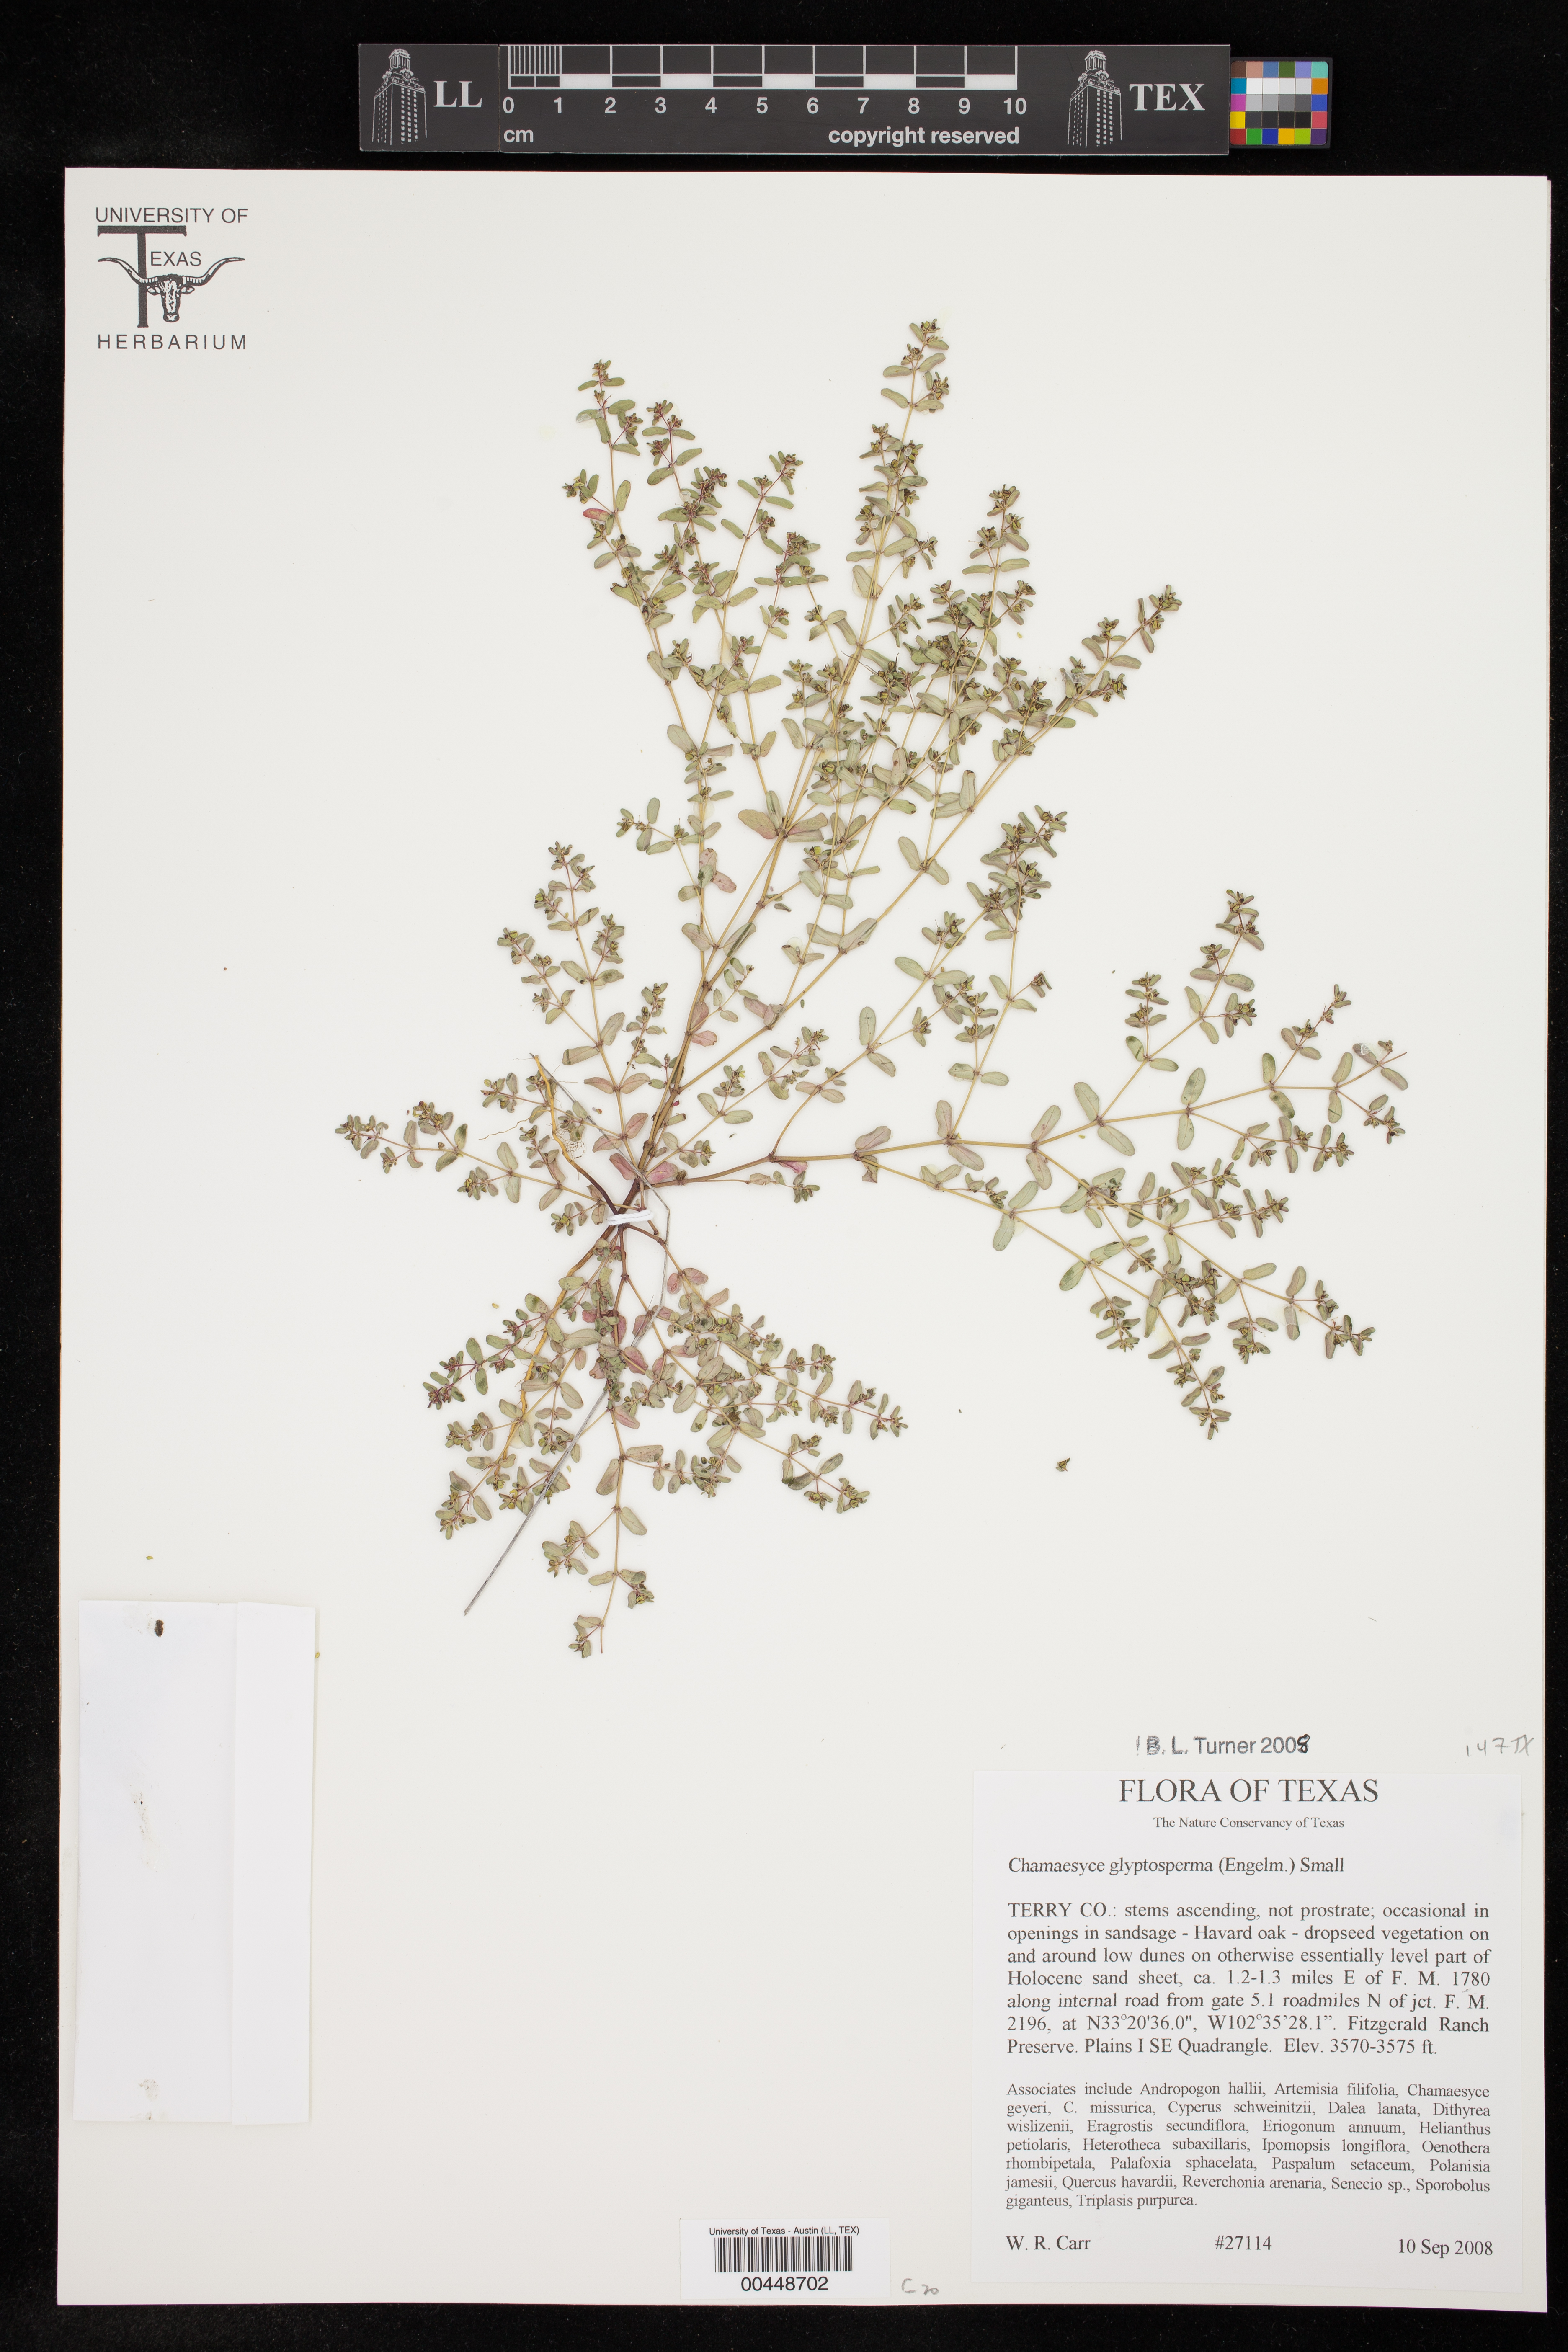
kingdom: Plantae
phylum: Tracheophyta
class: Magnoliopsida
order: Malpighiales
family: Euphorbiaceae
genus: Euphorbia
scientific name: Euphorbia glyptosperma
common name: Corrugate-seeded spurge
